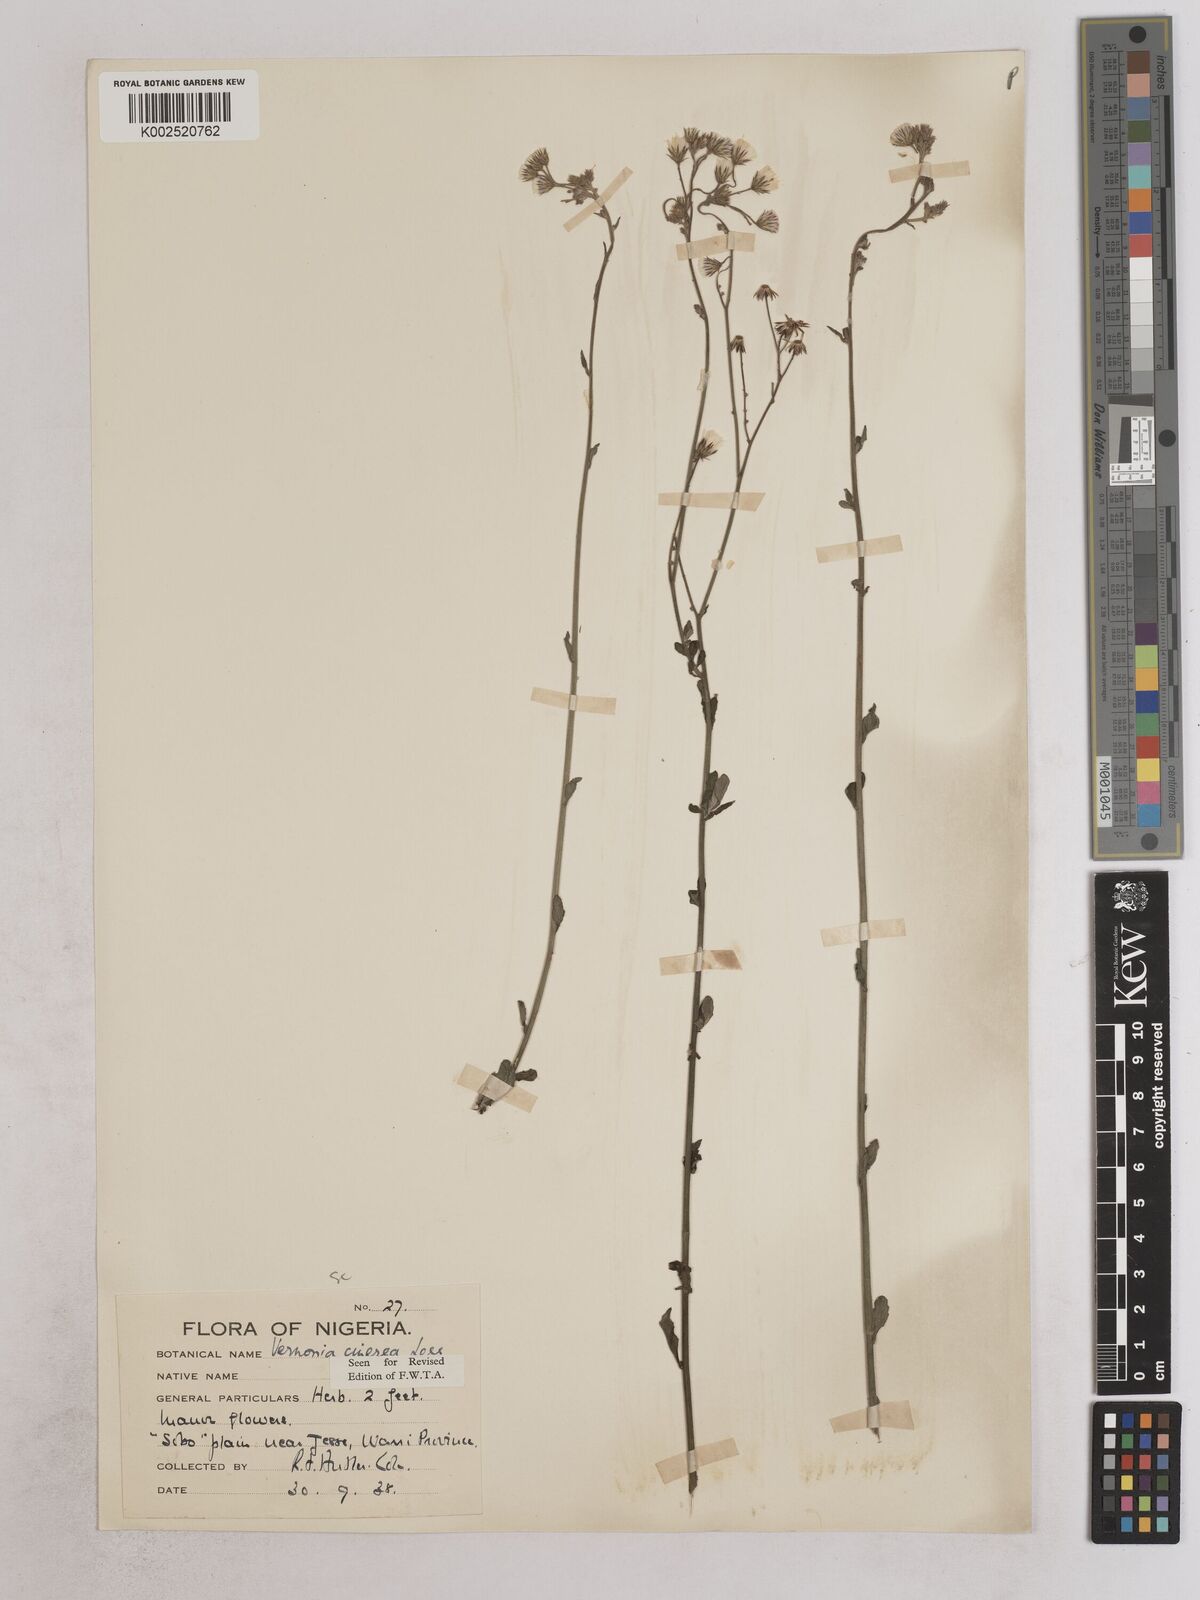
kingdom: Plantae
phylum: Tracheophyta
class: Magnoliopsida
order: Asterales
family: Asteraceae
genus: Cyanthillium
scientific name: Cyanthillium cinereum
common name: Little ironweed
